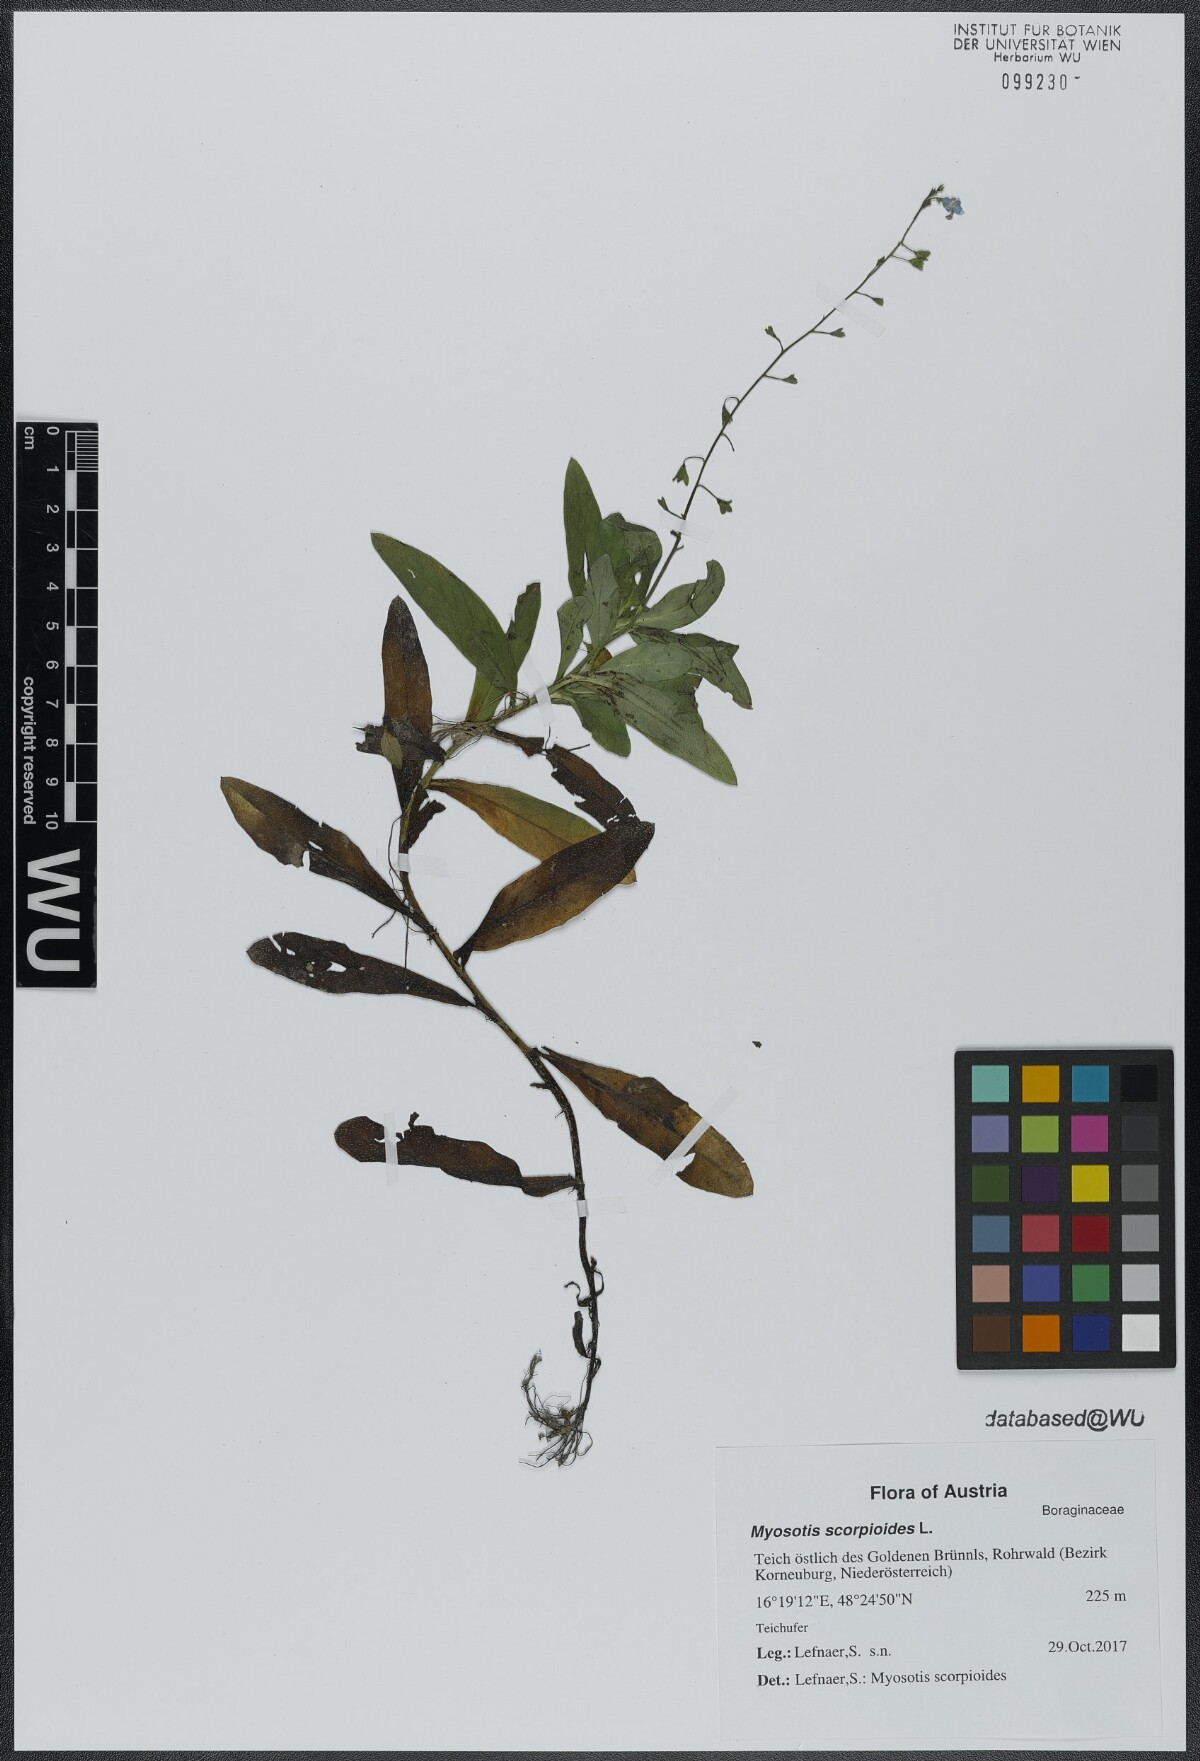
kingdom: Plantae
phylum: Tracheophyta
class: Magnoliopsida
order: Boraginales
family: Boraginaceae
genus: Myosotis
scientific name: Myosotis scorpioides
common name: Water forget-me-not
